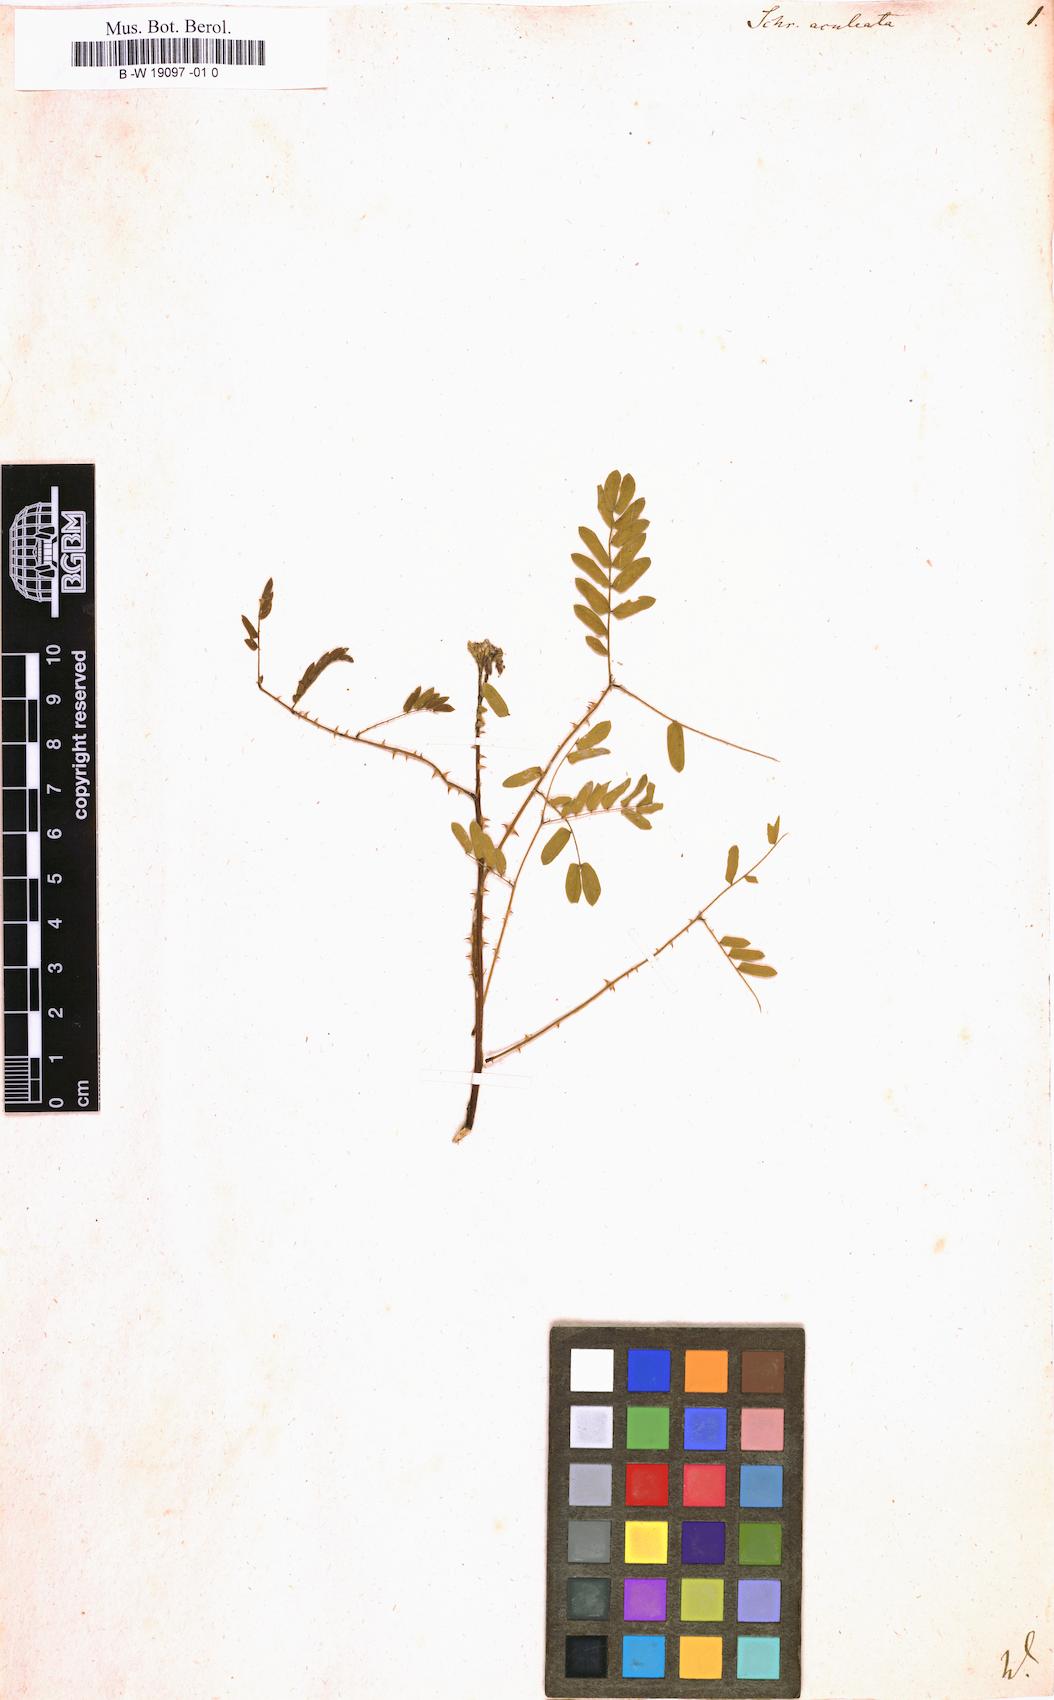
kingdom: Plantae
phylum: Tracheophyta
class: Magnoliopsida
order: Fabales
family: Fabaceae
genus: Mimosa
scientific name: Mimosa quadrivalvis
